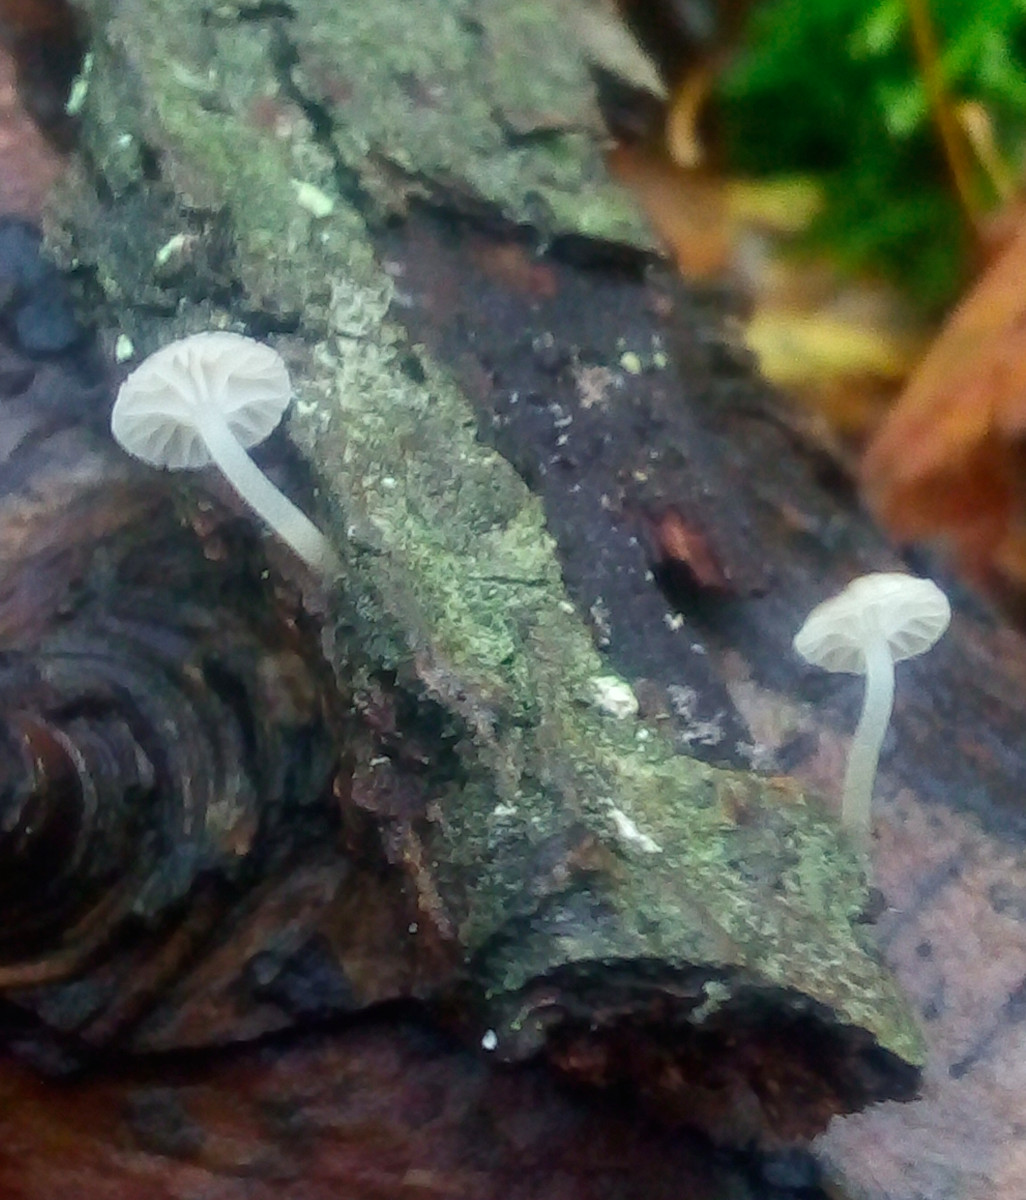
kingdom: Fungi
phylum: Basidiomycota
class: Agaricomycetes
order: Agaricales
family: Porotheleaceae
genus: Phloeomana
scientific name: Phloeomana speirea
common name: kvist-huesvamp
